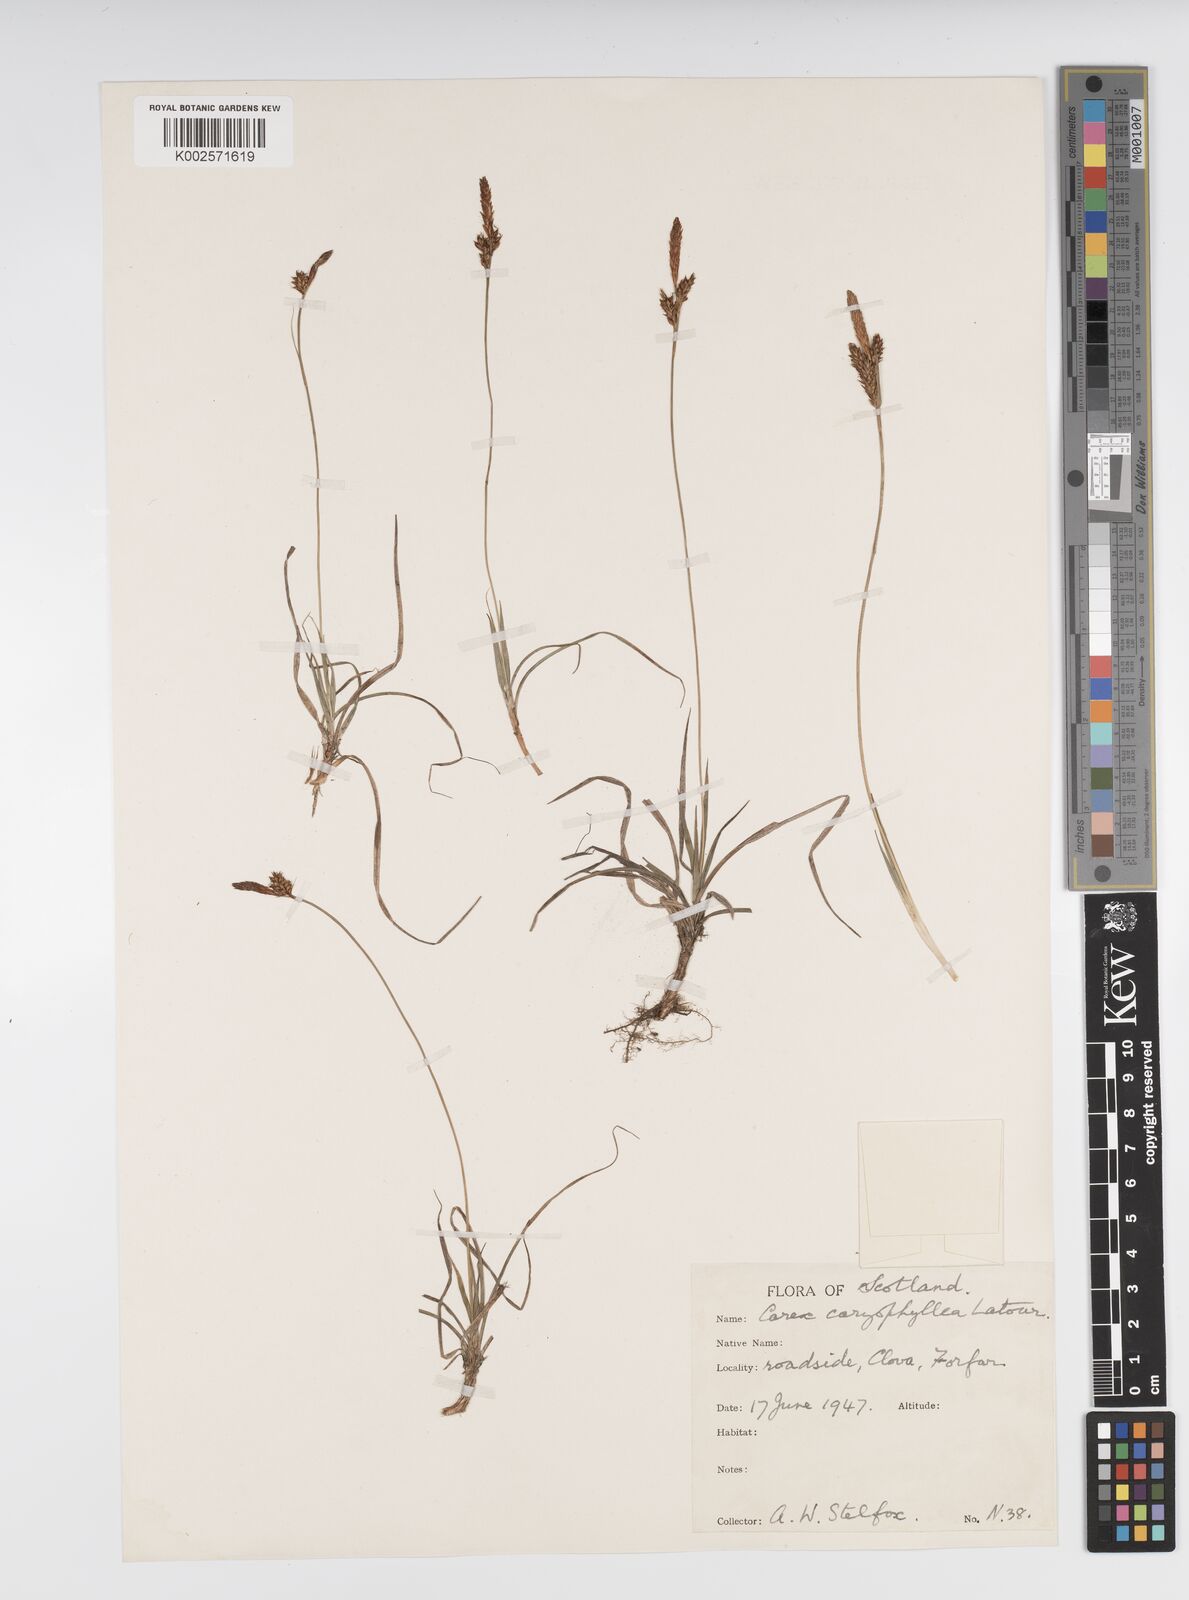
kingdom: Plantae
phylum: Tracheophyta
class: Liliopsida
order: Poales
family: Cyperaceae
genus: Carex
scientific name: Carex caryophyllea
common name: Spring sedge
